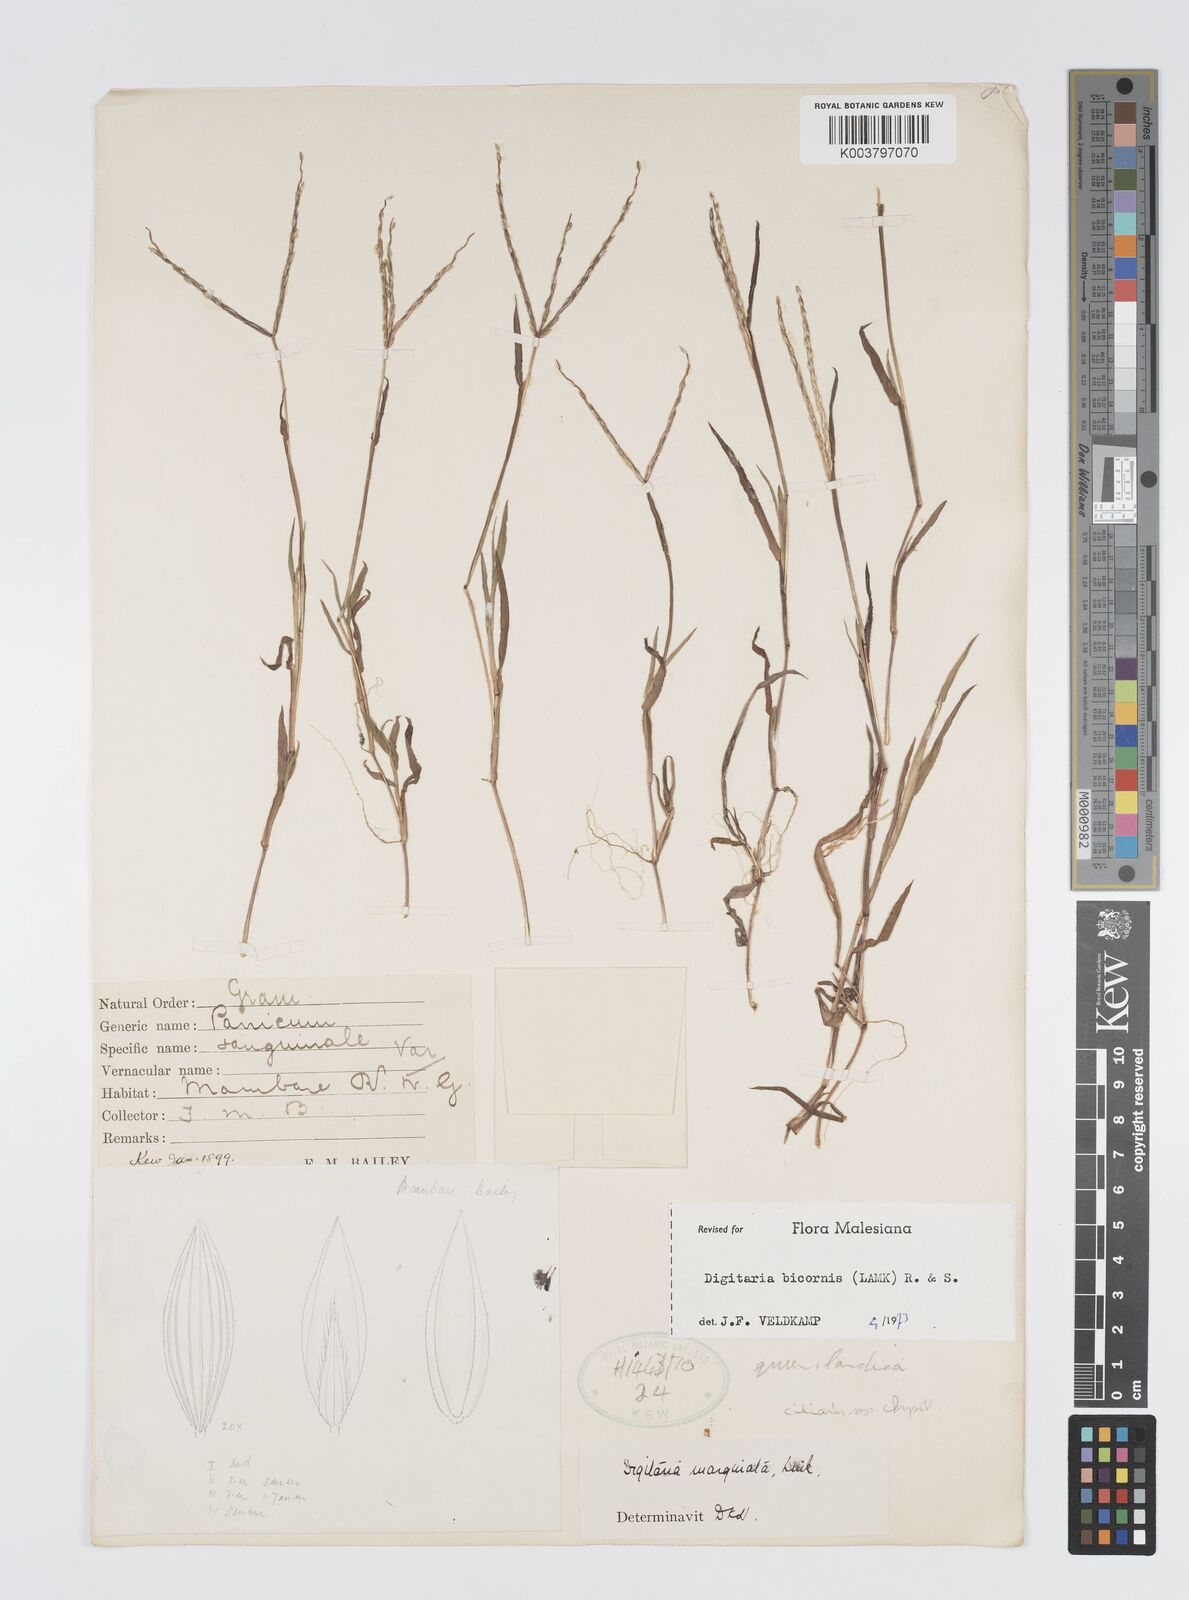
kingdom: Plantae
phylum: Tracheophyta
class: Liliopsida
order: Poales
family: Poaceae
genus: Digitaria
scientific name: Digitaria ciliaris
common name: Tropical finger-grass
